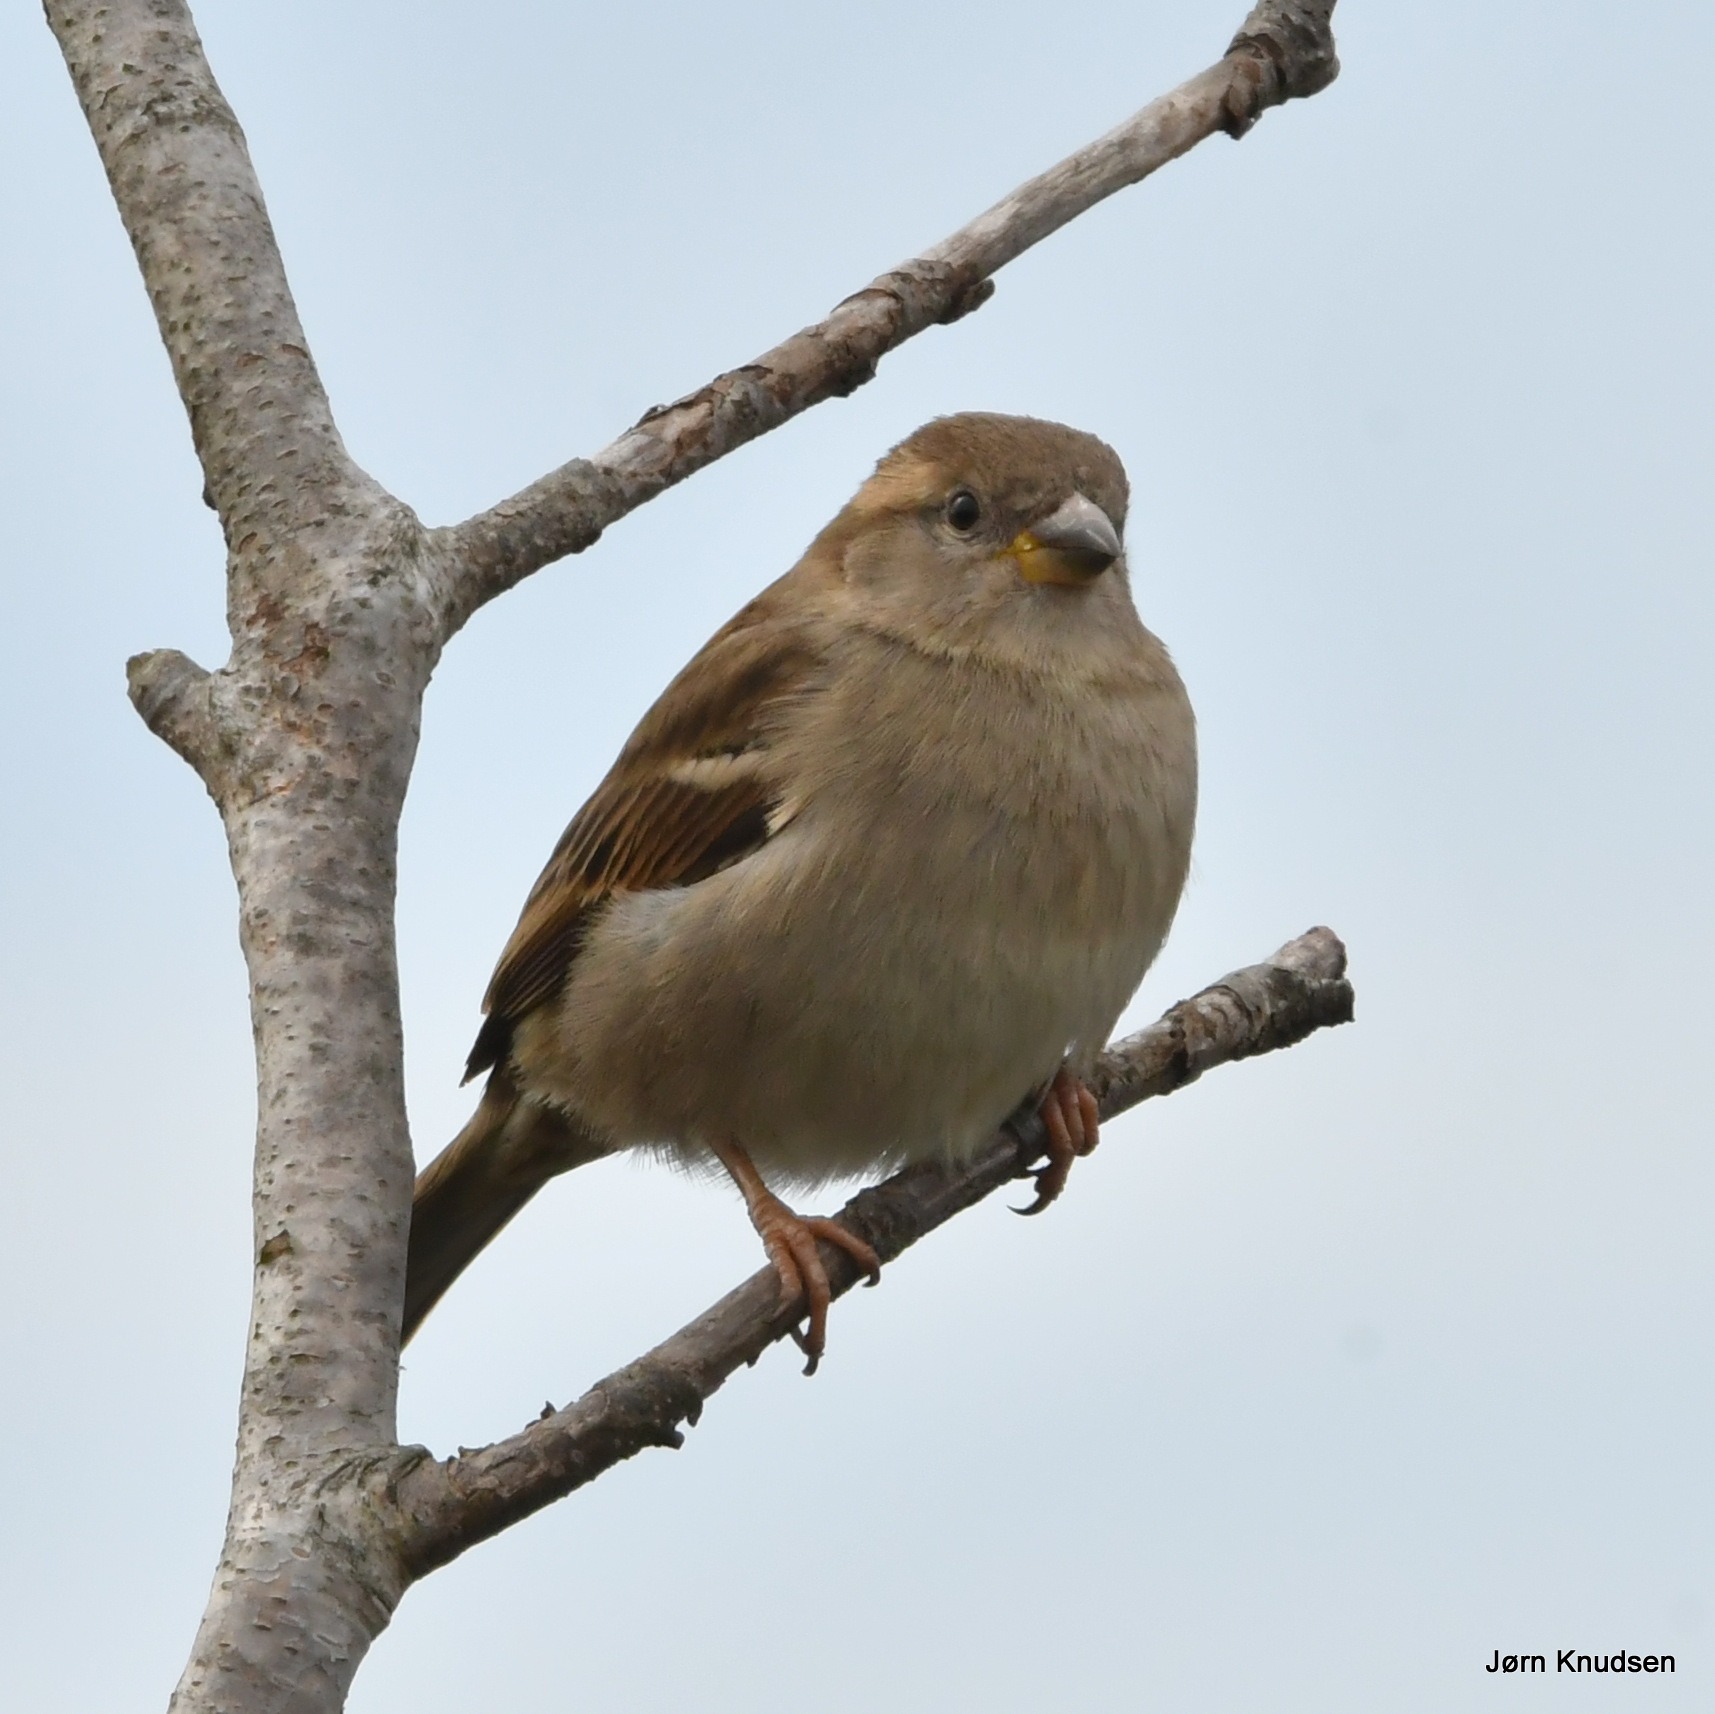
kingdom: Animalia
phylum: Chordata
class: Aves
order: Passeriformes
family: Passeridae
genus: Passer
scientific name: Passer domesticus
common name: Gråspurv
